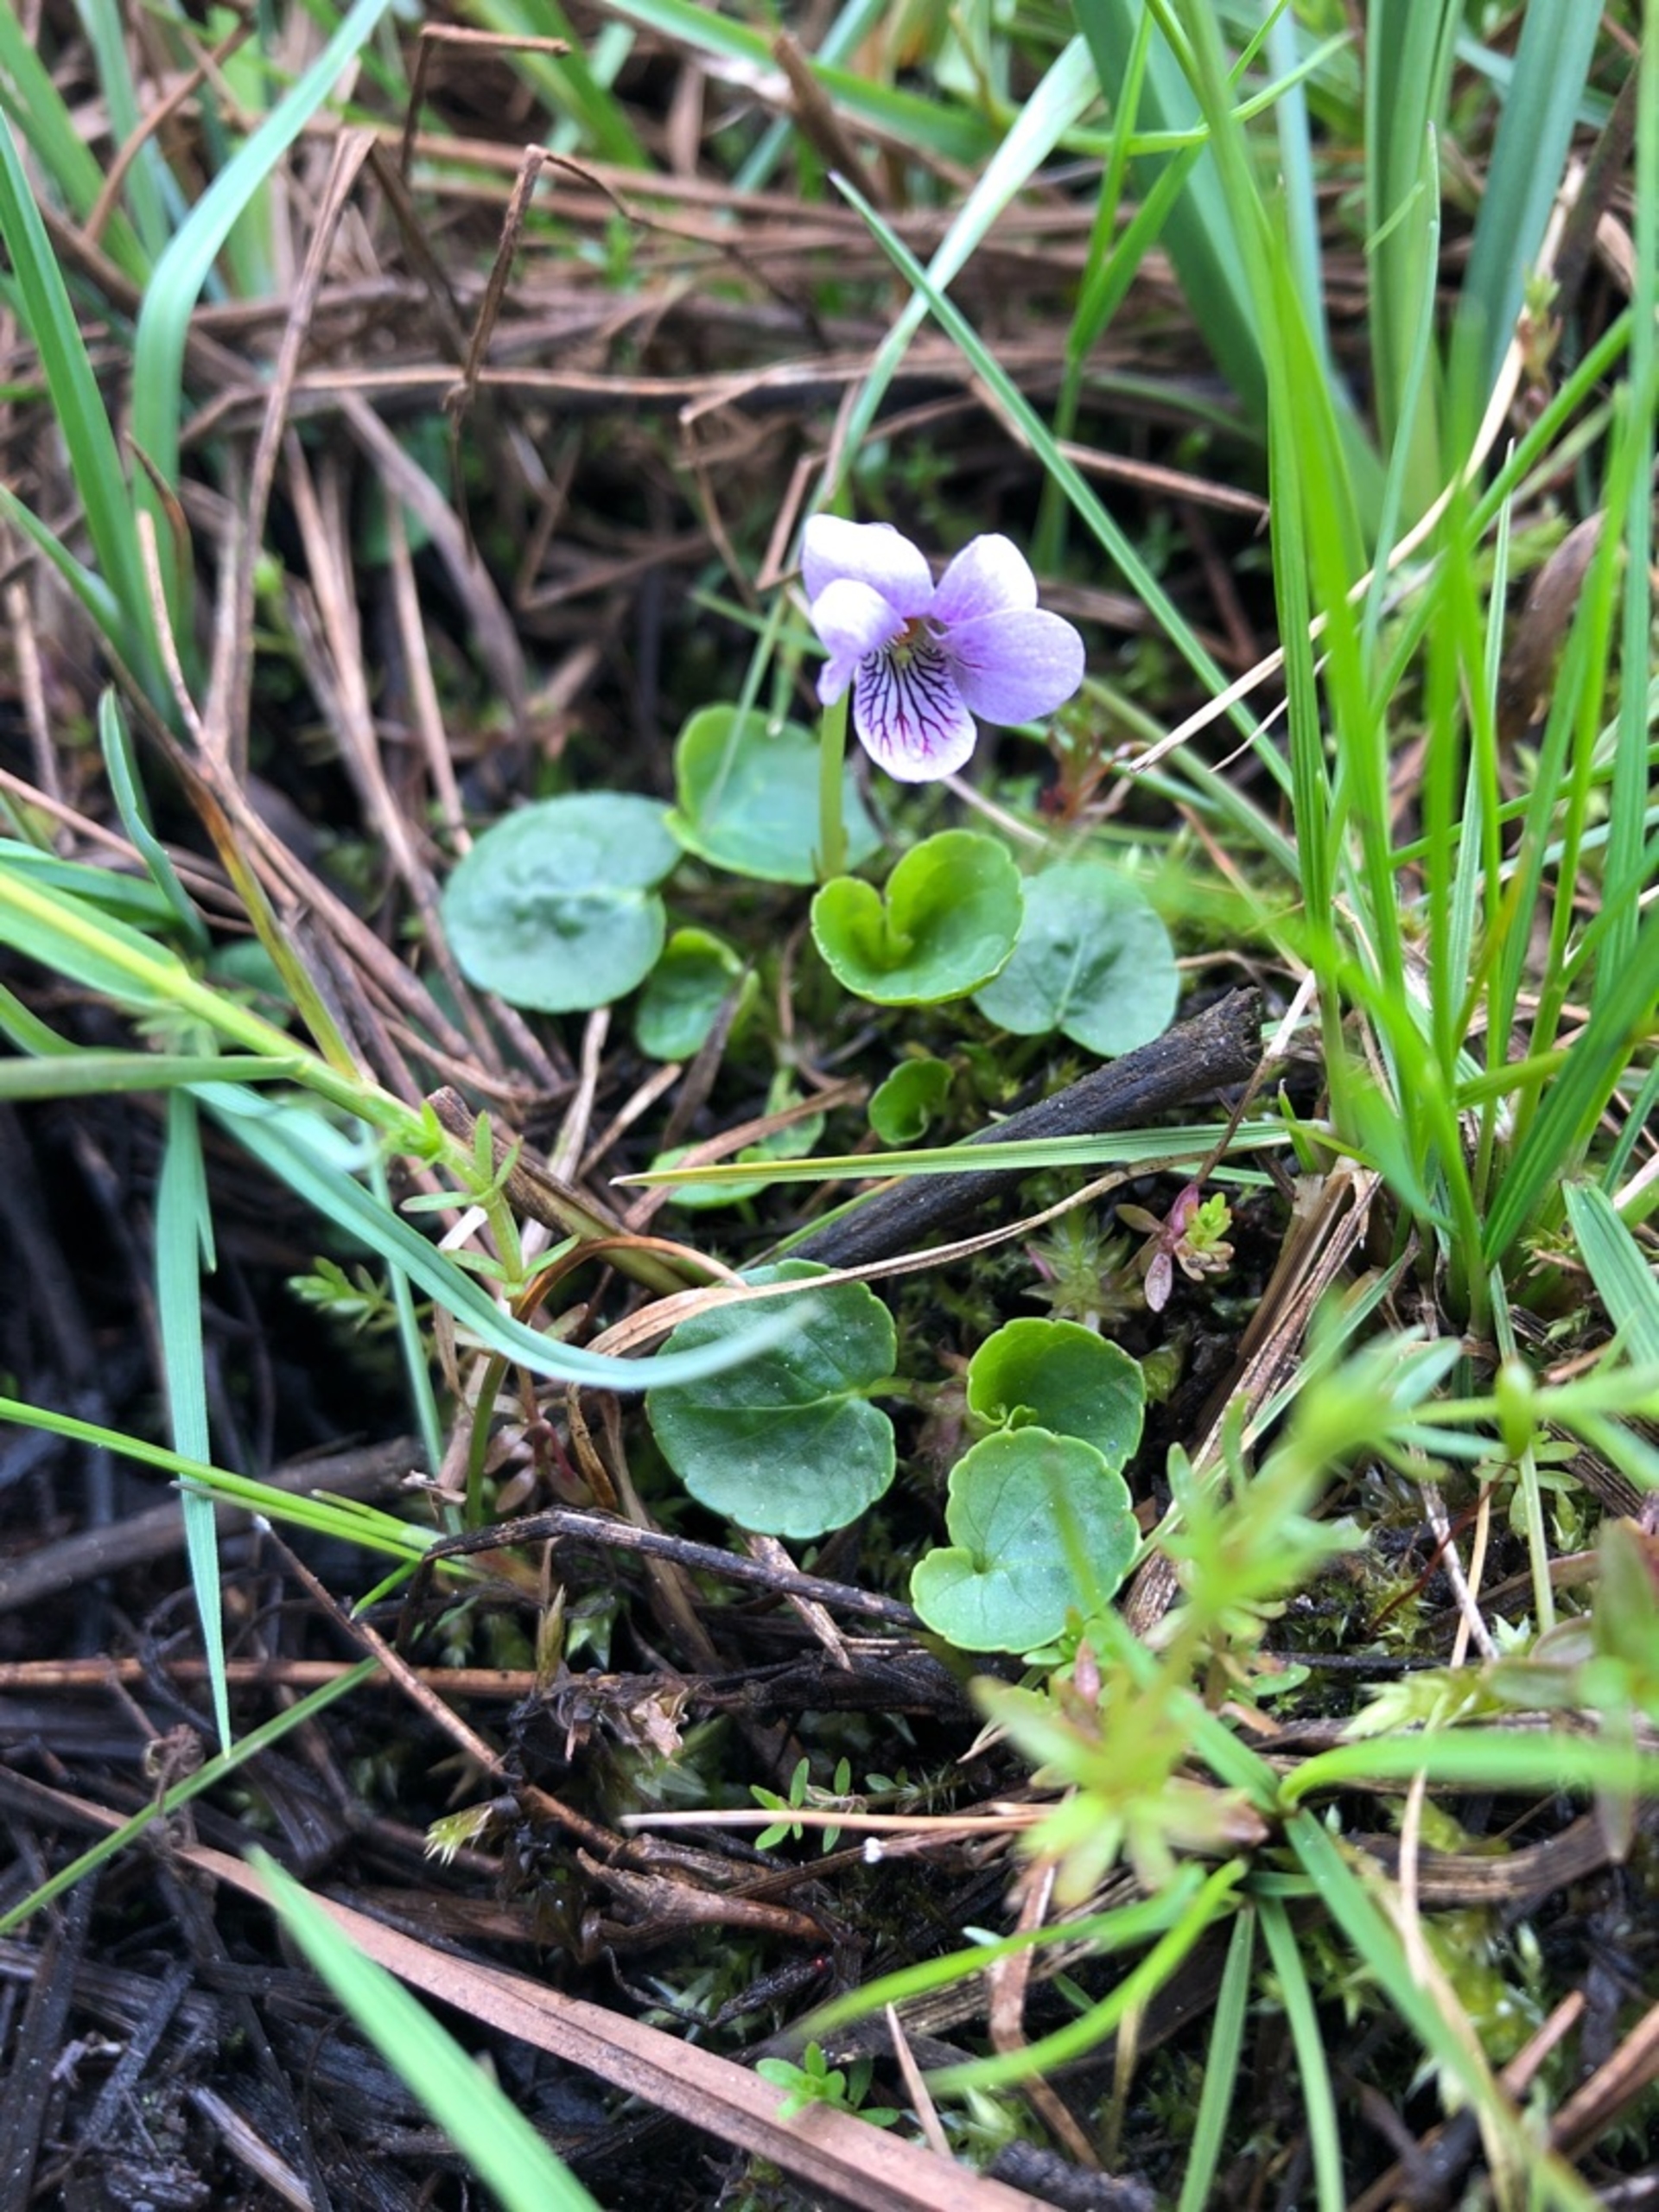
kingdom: Plantae
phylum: Tracheophyta
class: Magnoliopsida
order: Malpighiales
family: Violaceae
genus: Viola
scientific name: Viola palustris
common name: Eng-viol
